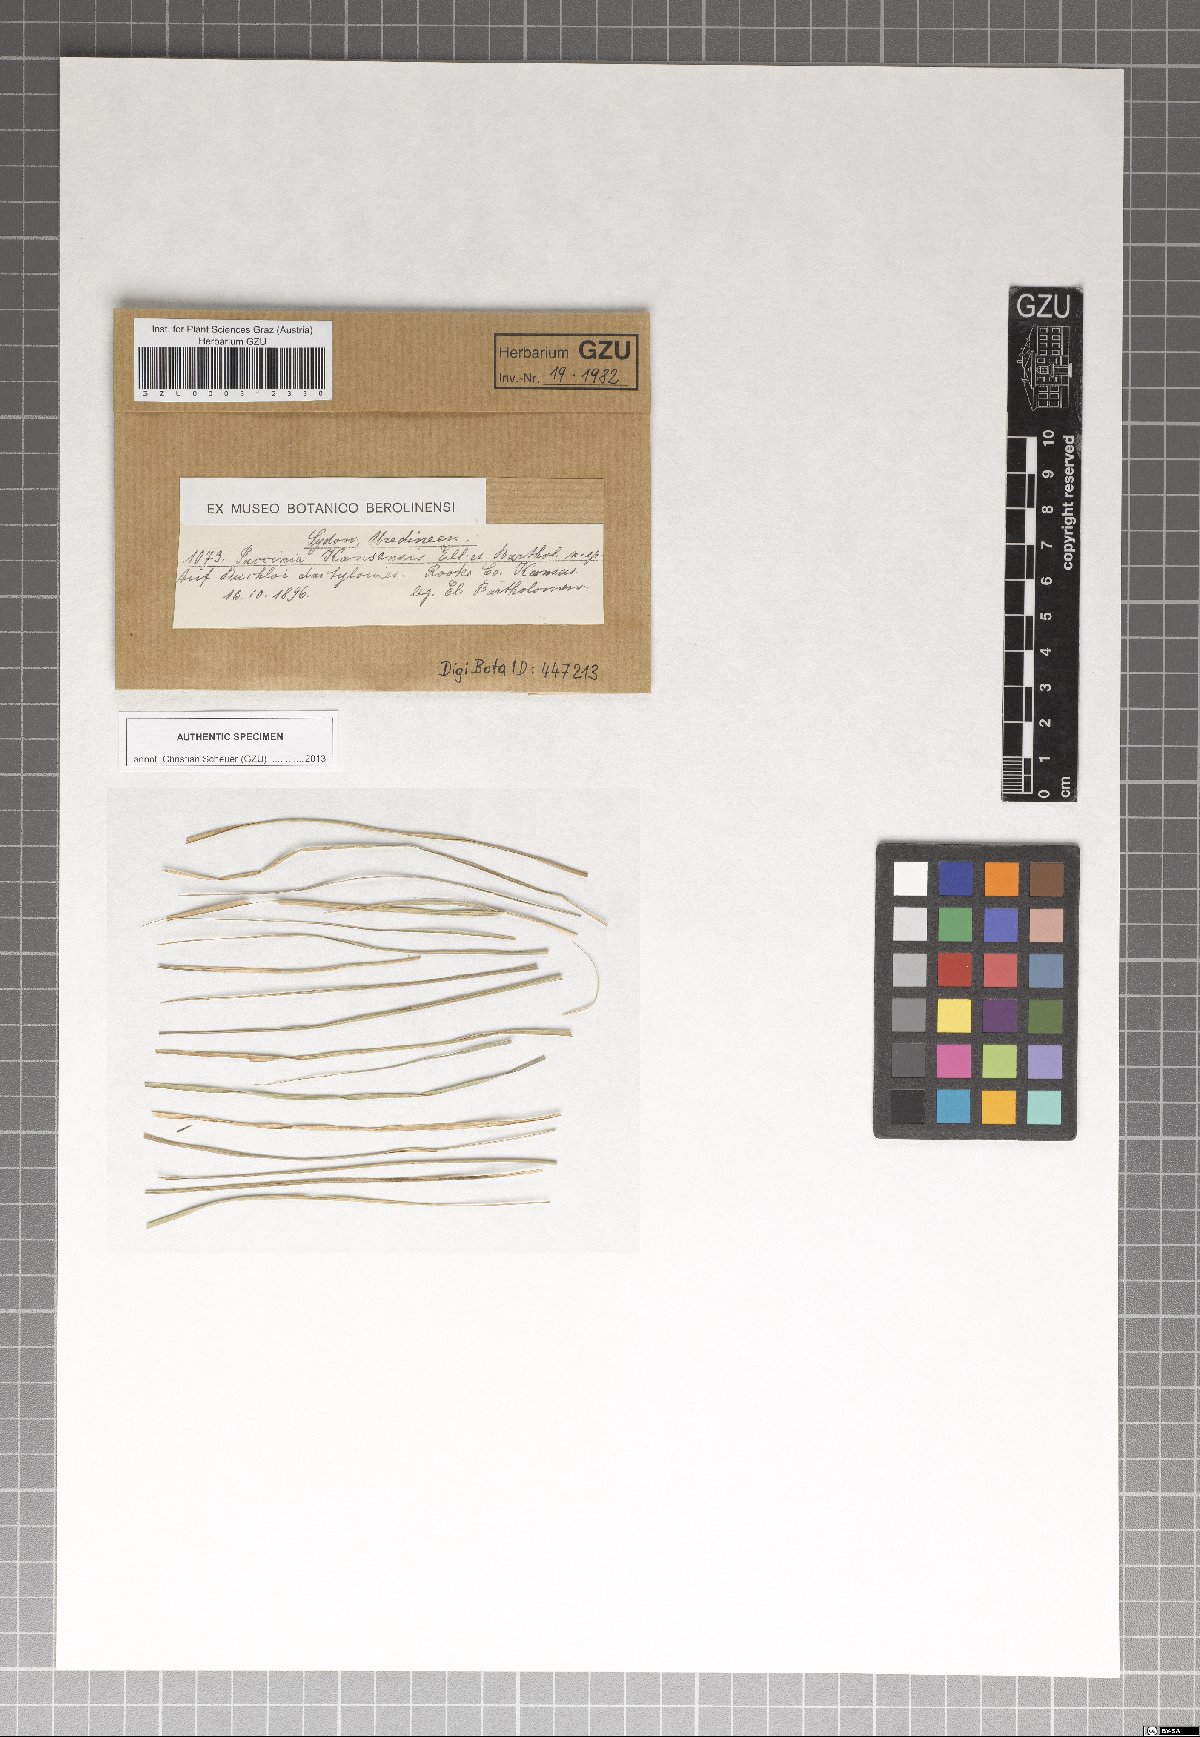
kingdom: Fungi
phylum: Basidiomycota
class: Pucciniomycetes
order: Pucciniales
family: Pucciniaceae
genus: Puccinia
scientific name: Puccinia kansensis
